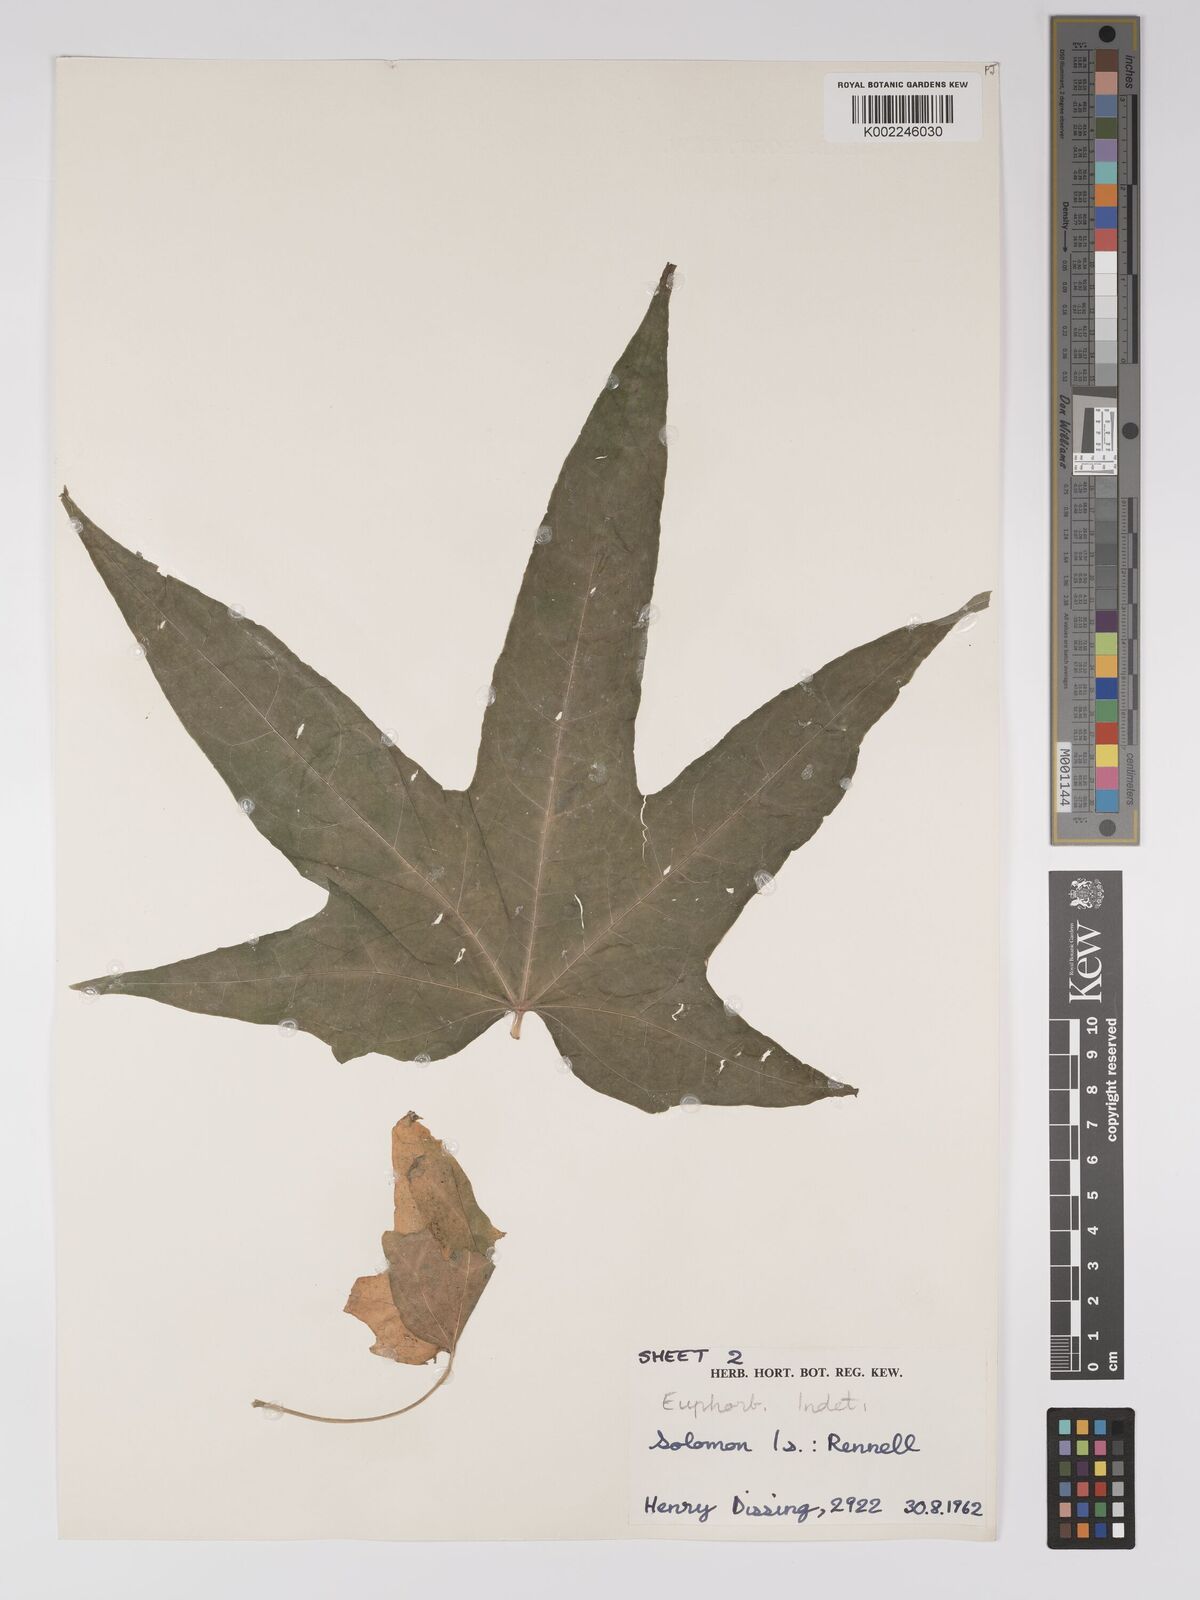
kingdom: Plantae
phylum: Tracheophyta
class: Magnoliopsida
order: Malpighiales
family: Euphorbiaceae
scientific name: Euphorbiaceae
